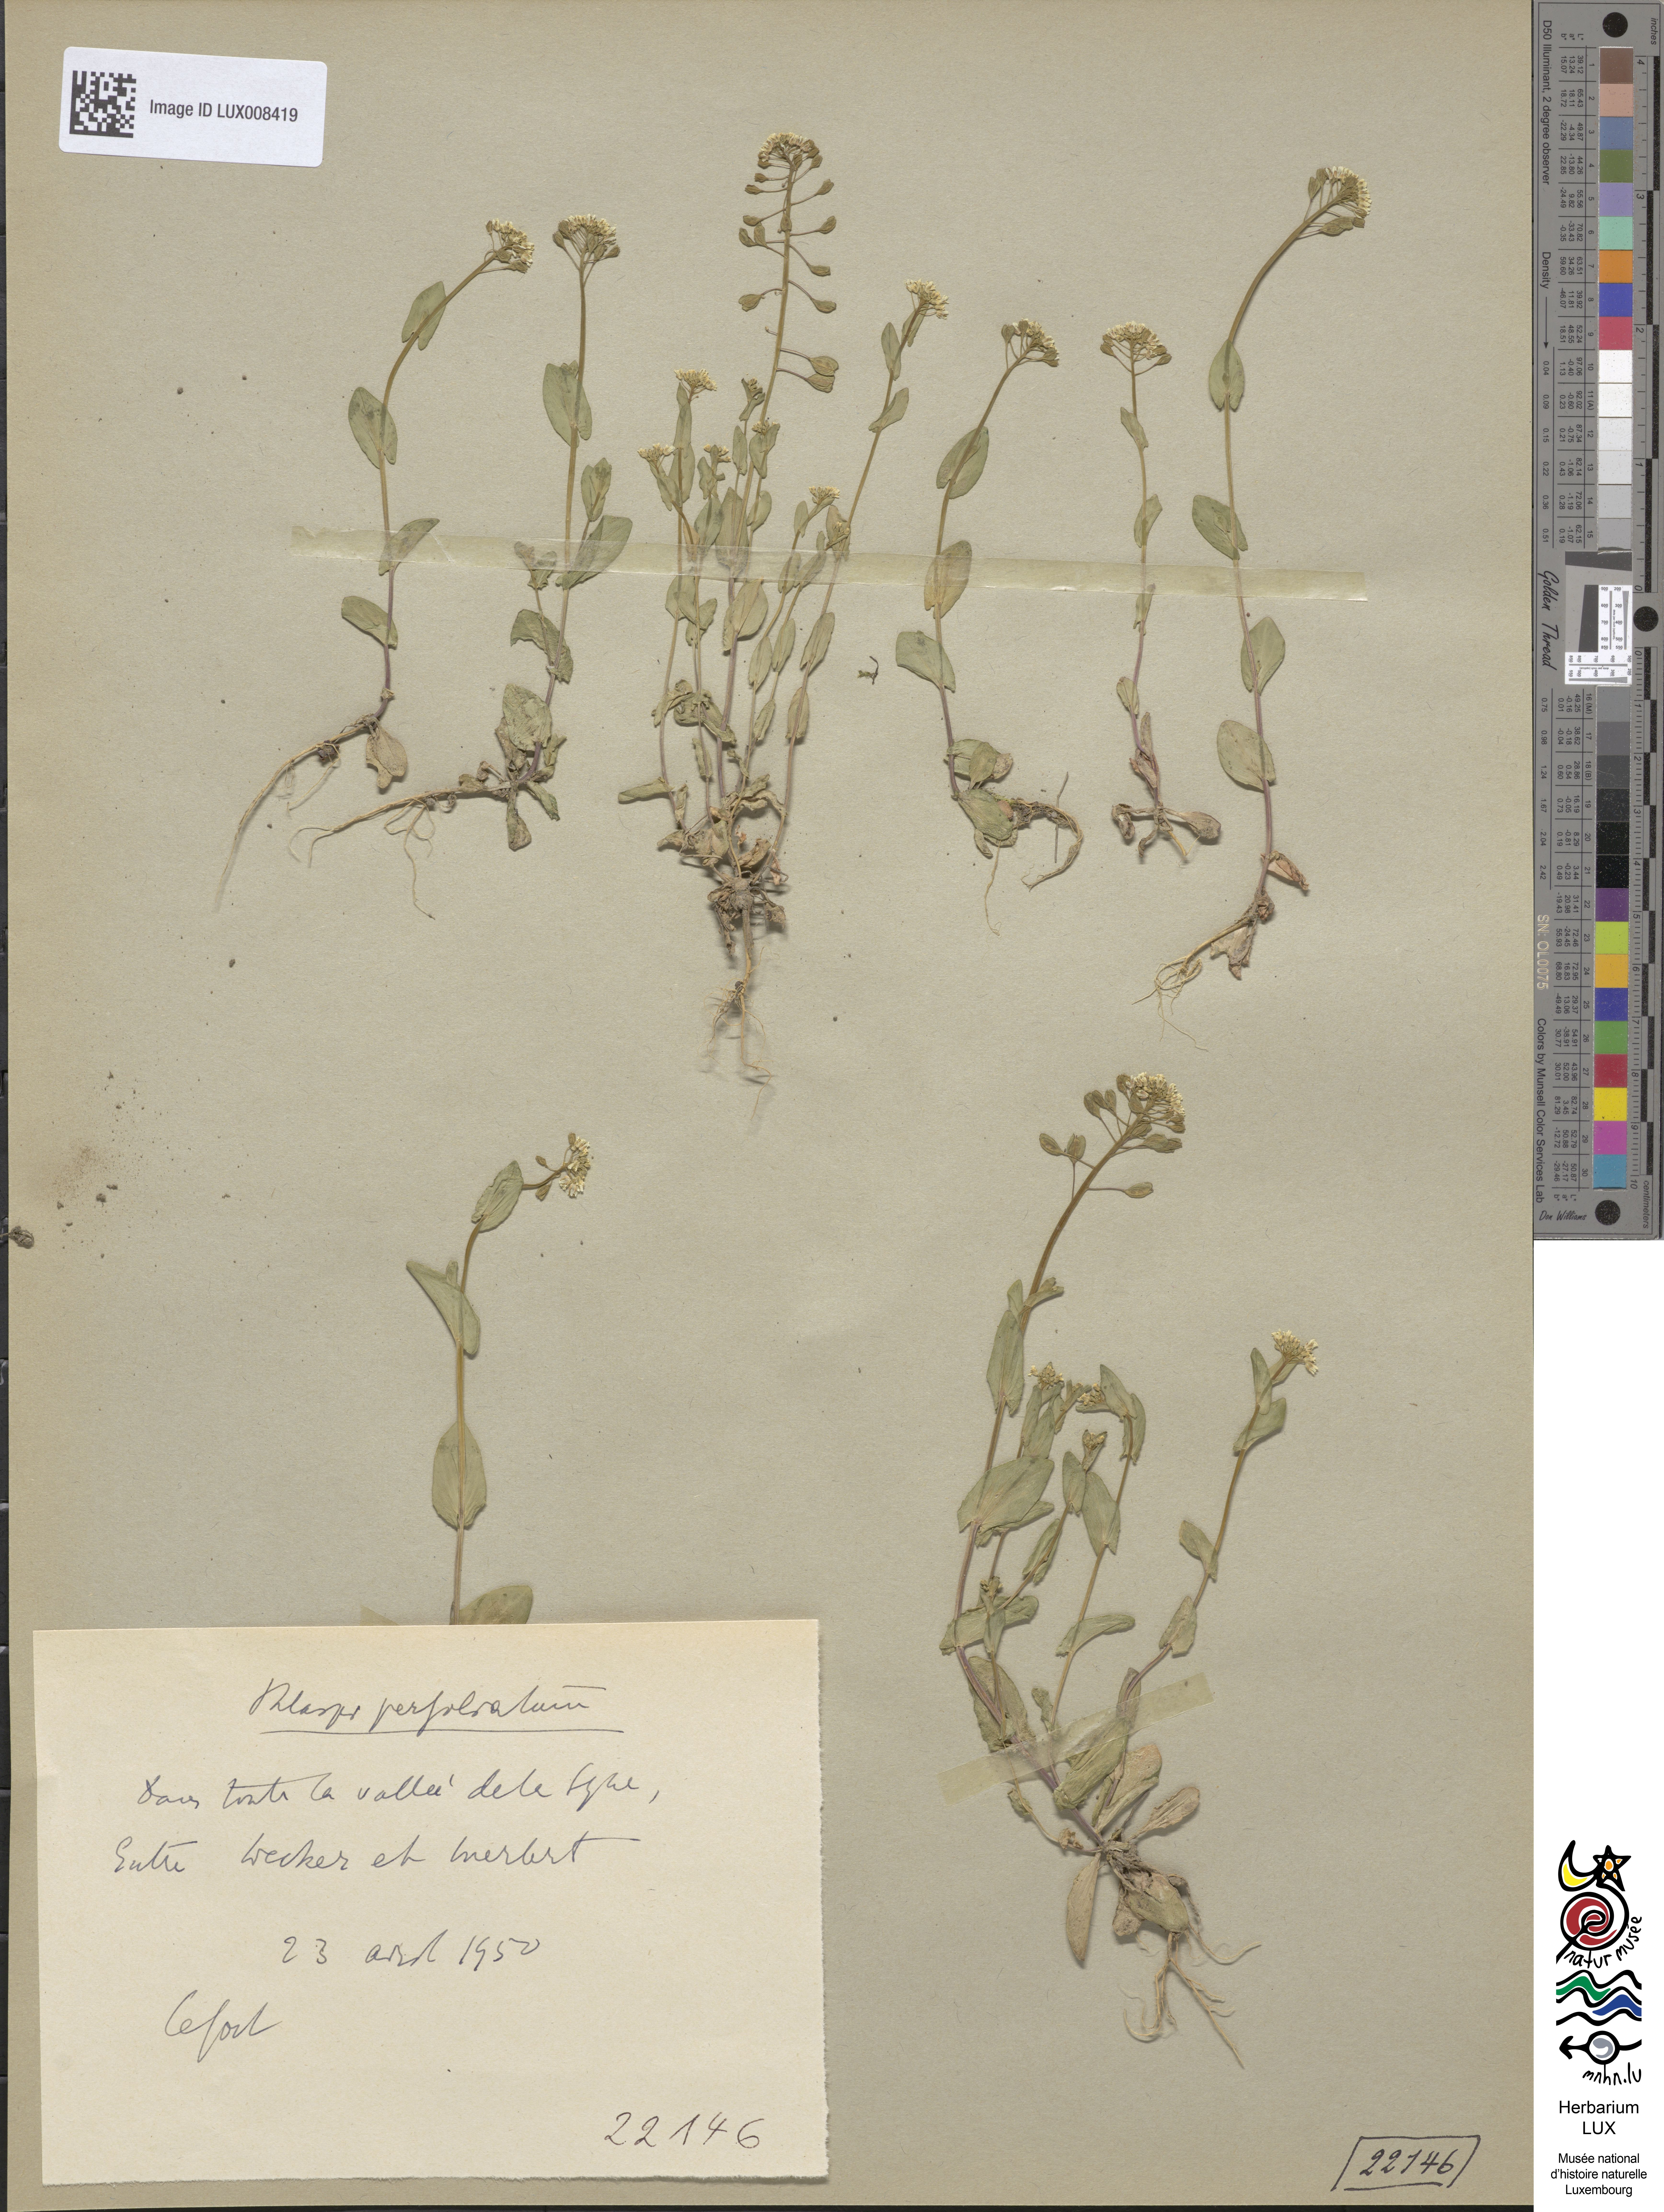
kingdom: Plantae
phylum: Tracheophyta
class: Magnoliopsida
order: Brassicales
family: Brassicaceae
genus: Noccaea
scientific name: Noccaea perfoliata
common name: Perfoliate pennycress
